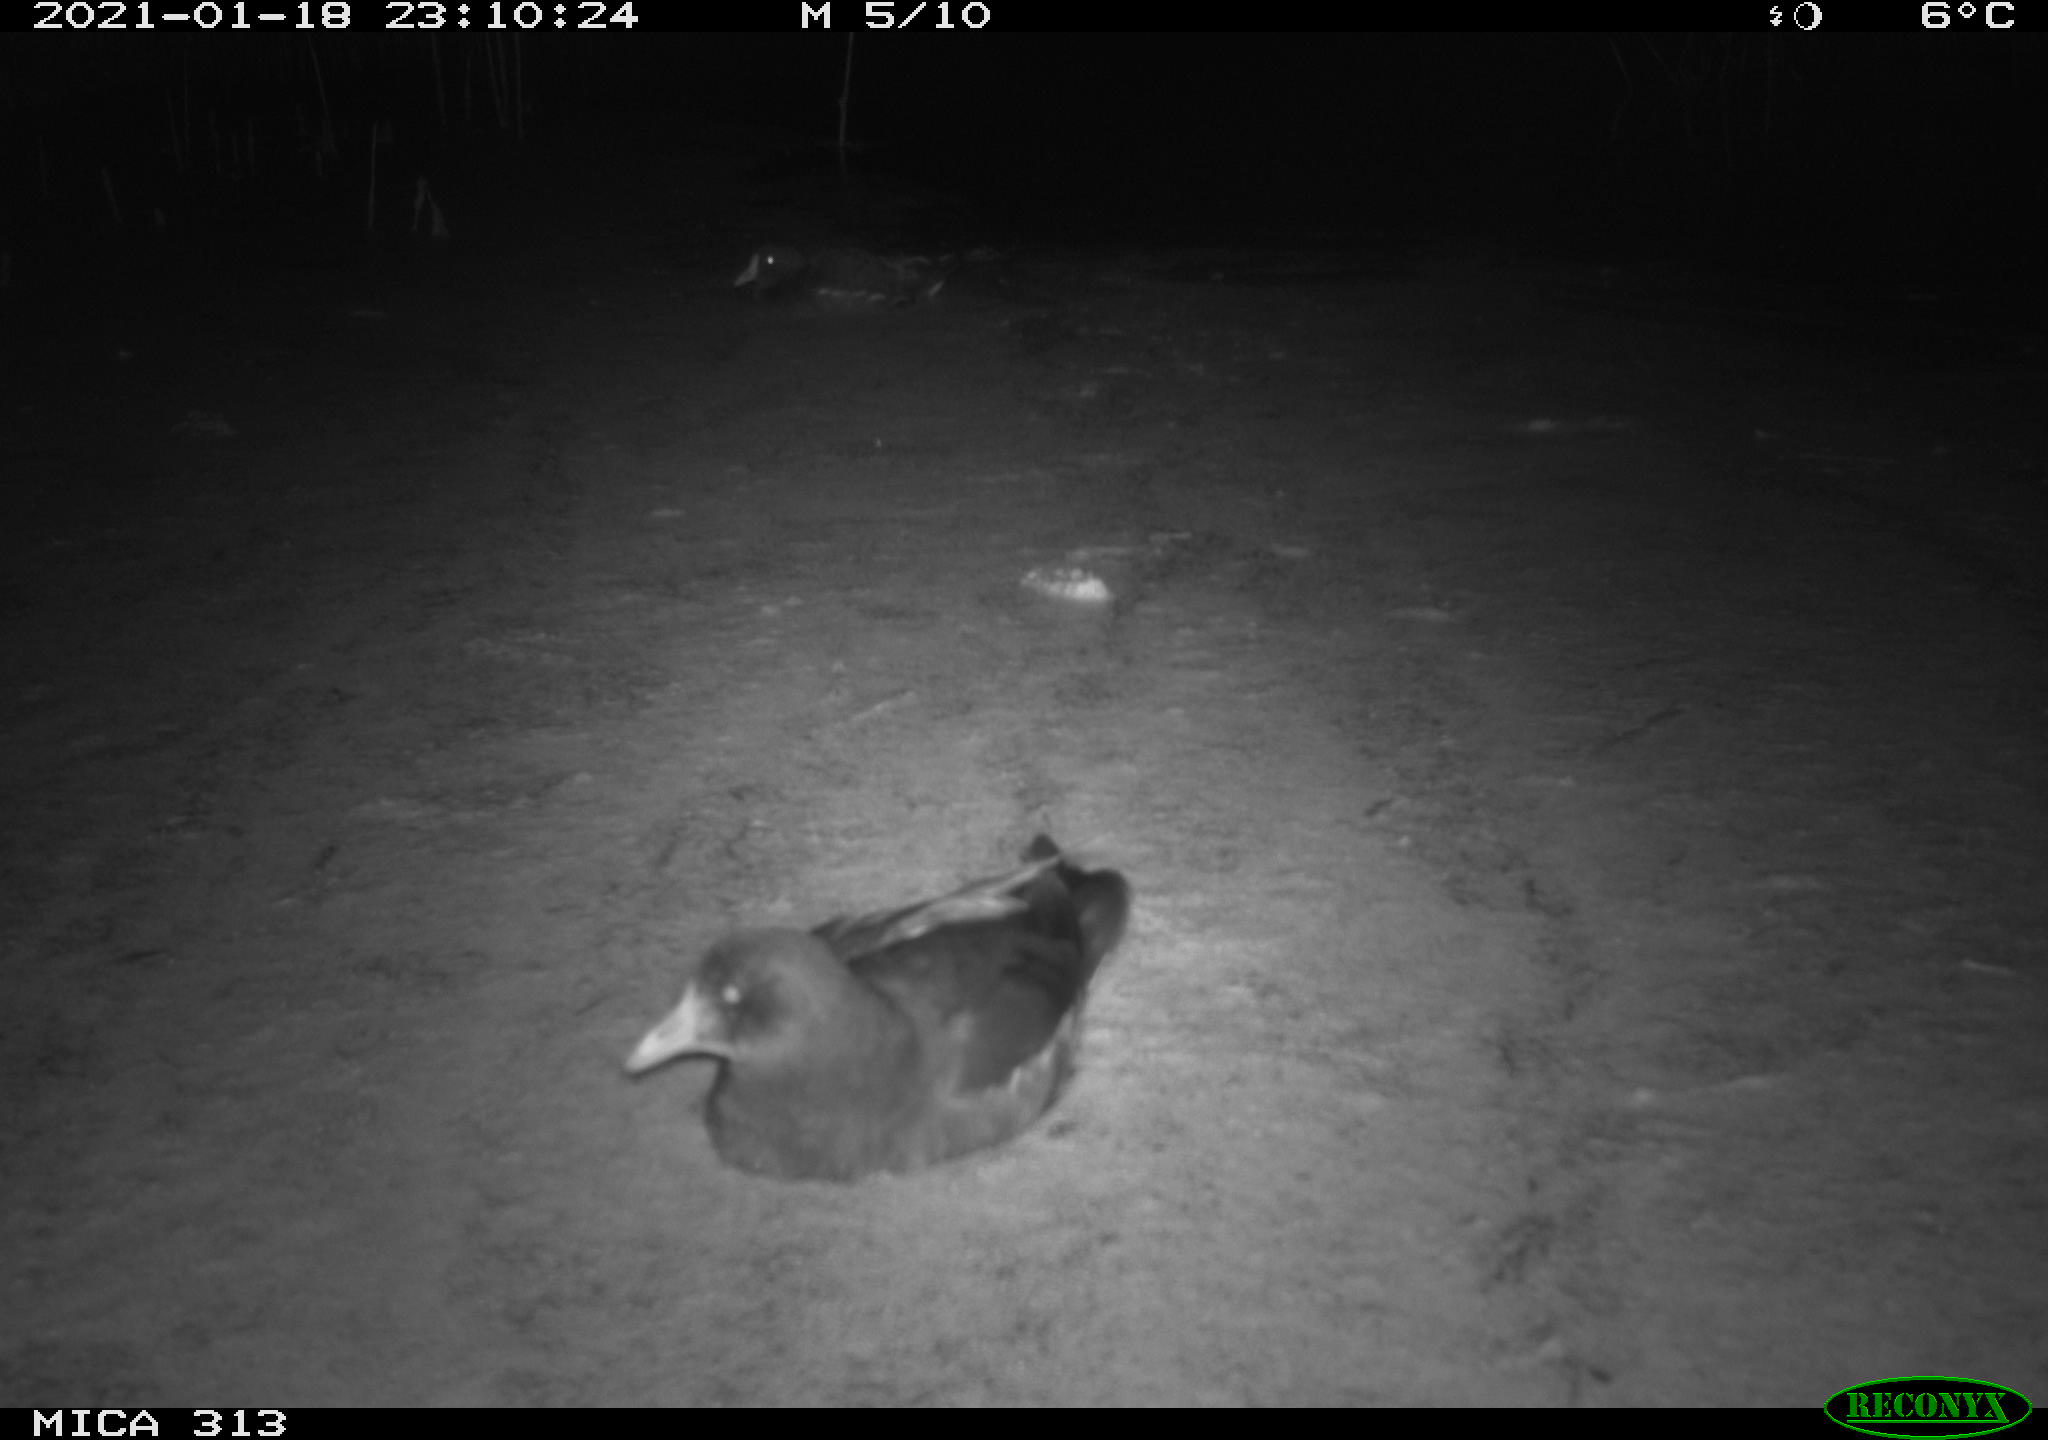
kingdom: Animalia
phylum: Chordata
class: Aves
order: Gruiformes
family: Rallidae
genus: Fulica
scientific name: Fulica atra
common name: Eurasian coot
